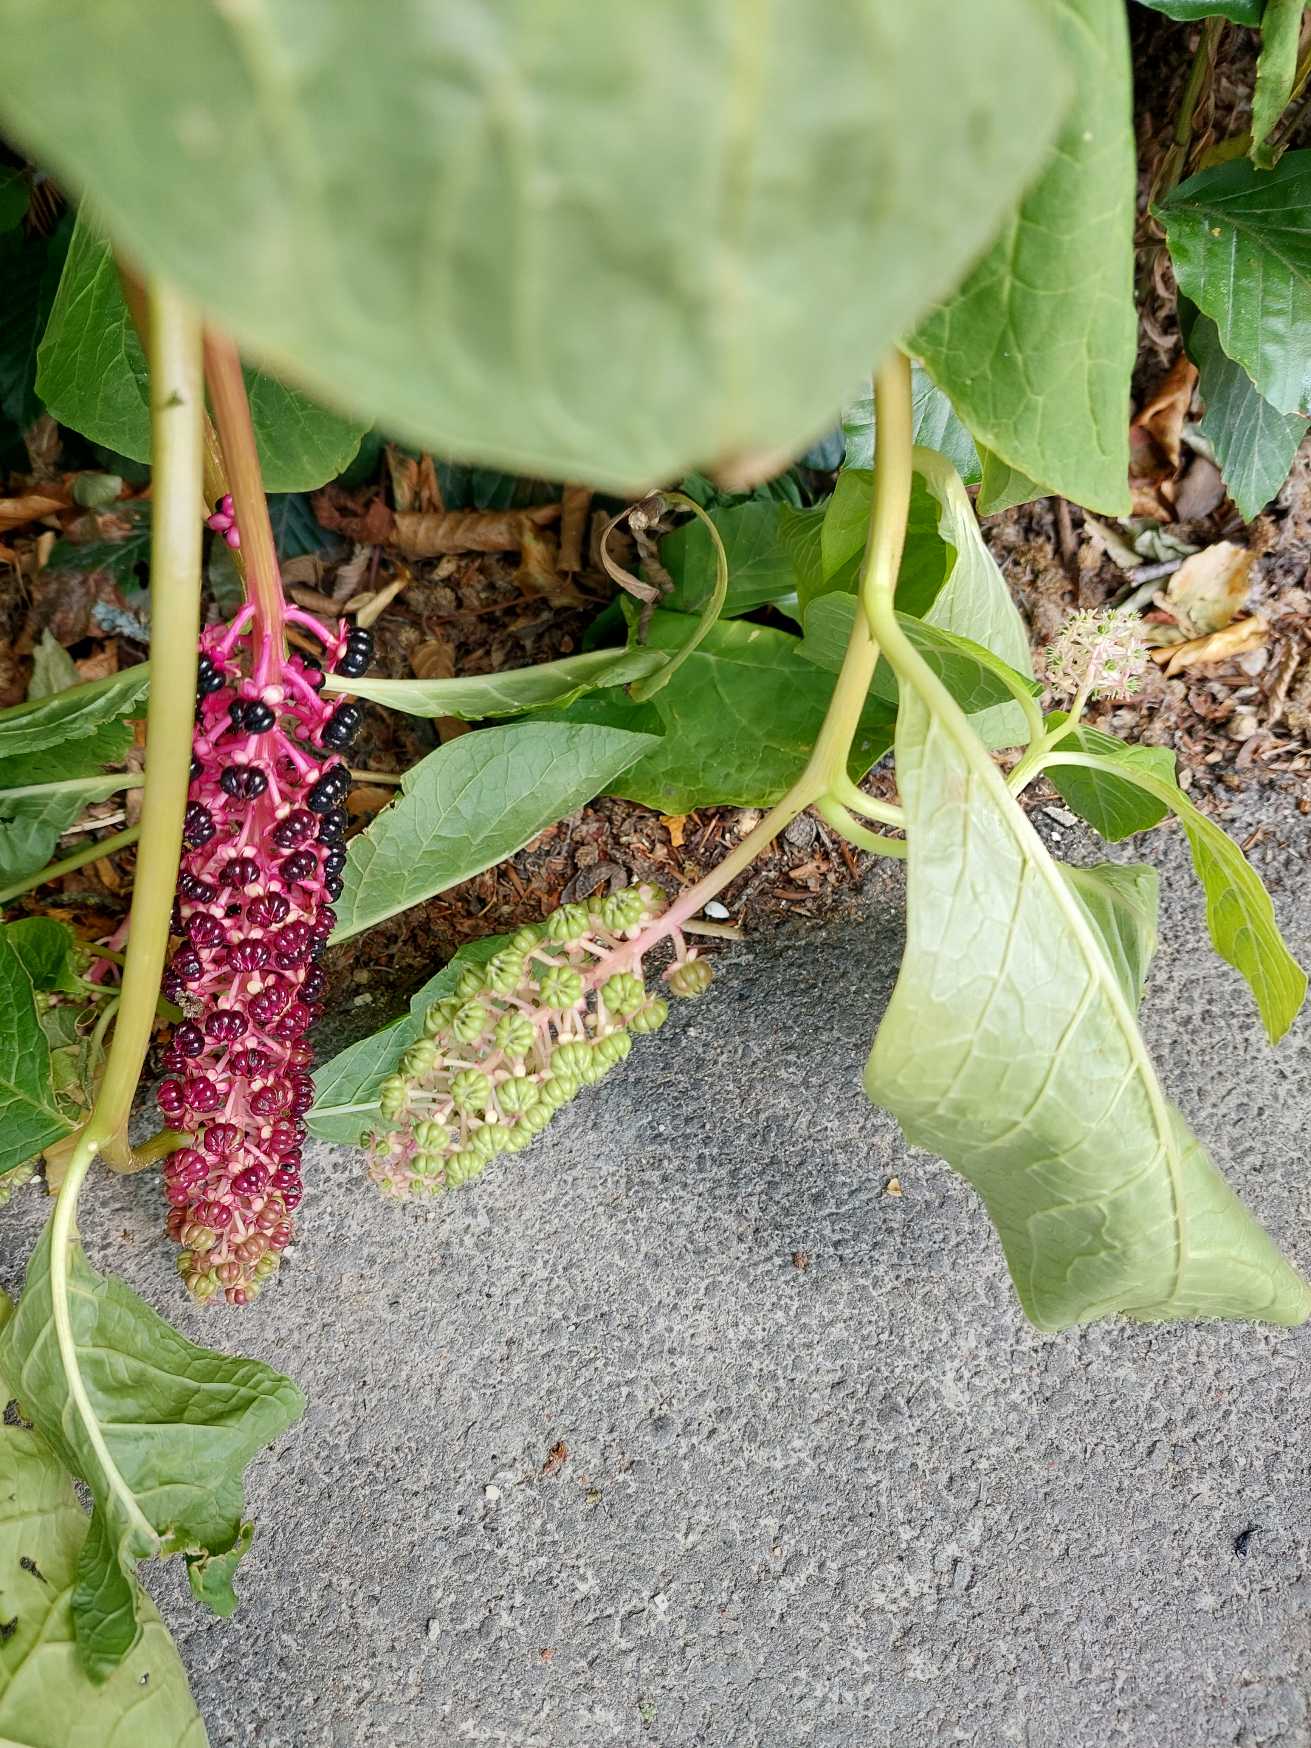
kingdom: Plantae
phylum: Tracheophyta
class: Magnoliopsida
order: Caryophyllales
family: Phytolaccaceae
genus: Phytolacca
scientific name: Phytolacca acinosa
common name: Asiatisk kermesbær
